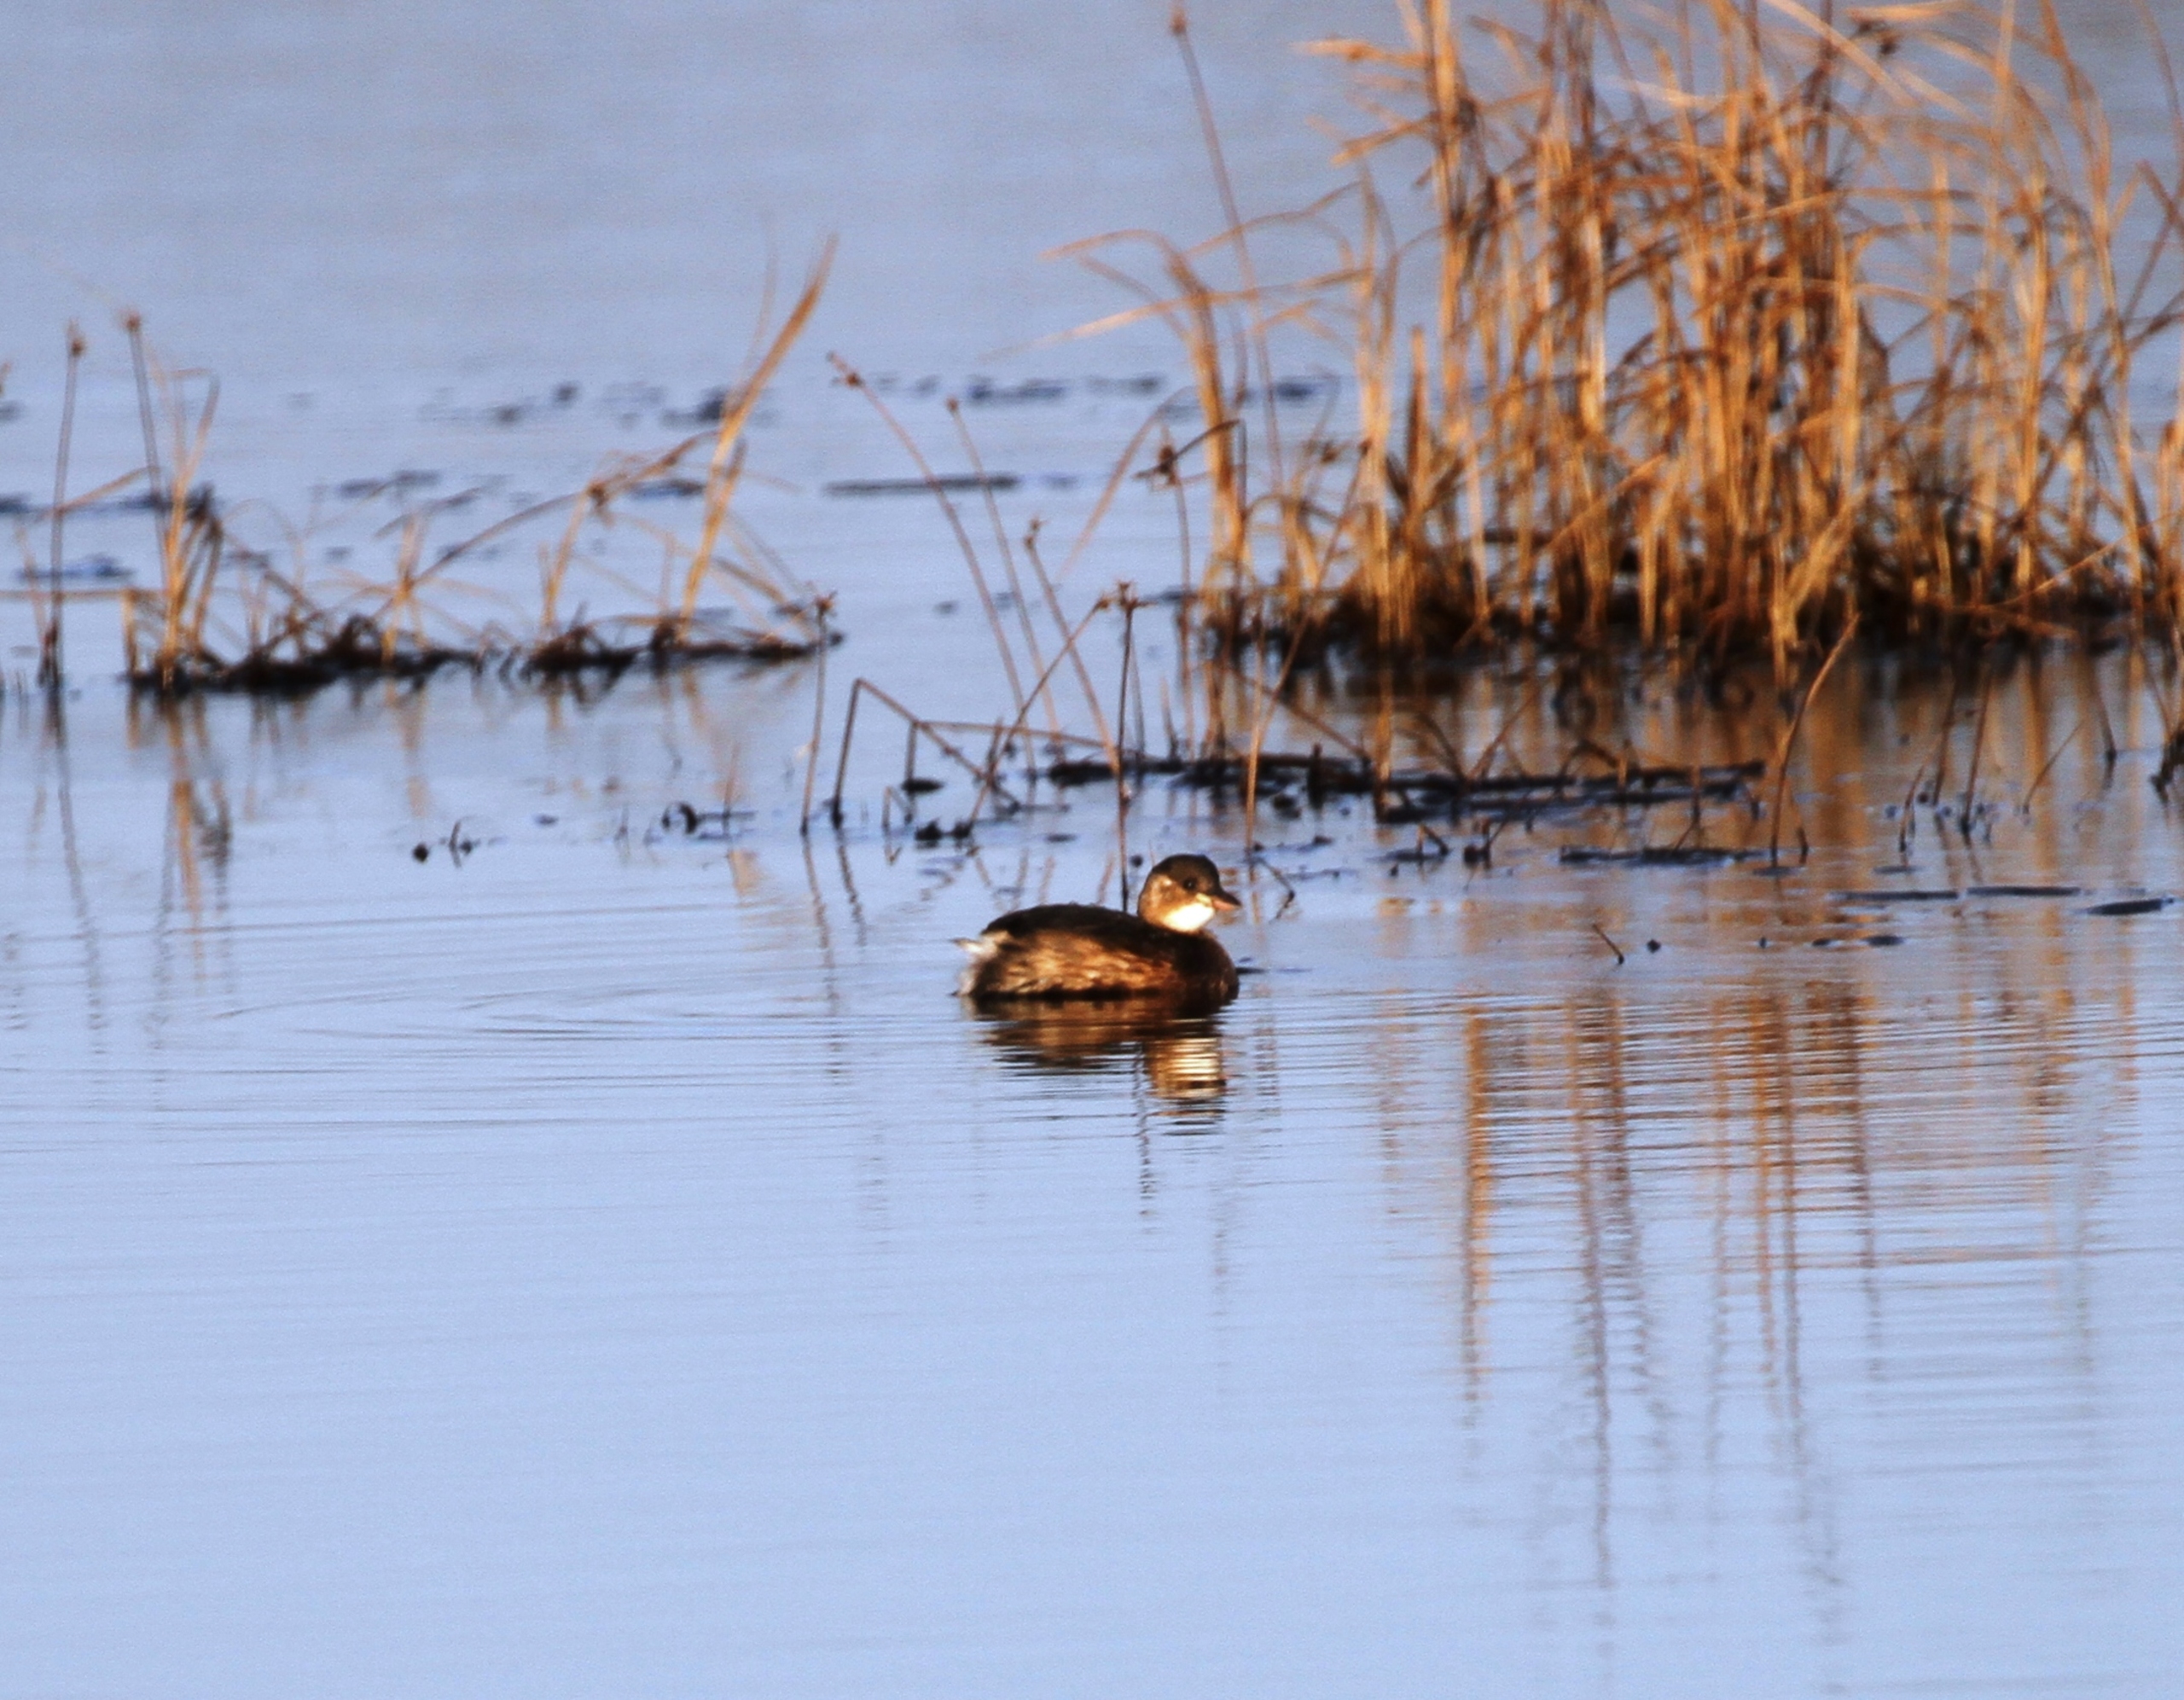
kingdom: Animalia
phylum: Chordata
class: Aves
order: Podicipediformes
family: Podicipedidae
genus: Tachybaptus
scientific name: Tachybaptus ruficollis
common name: Lille lappedykker
